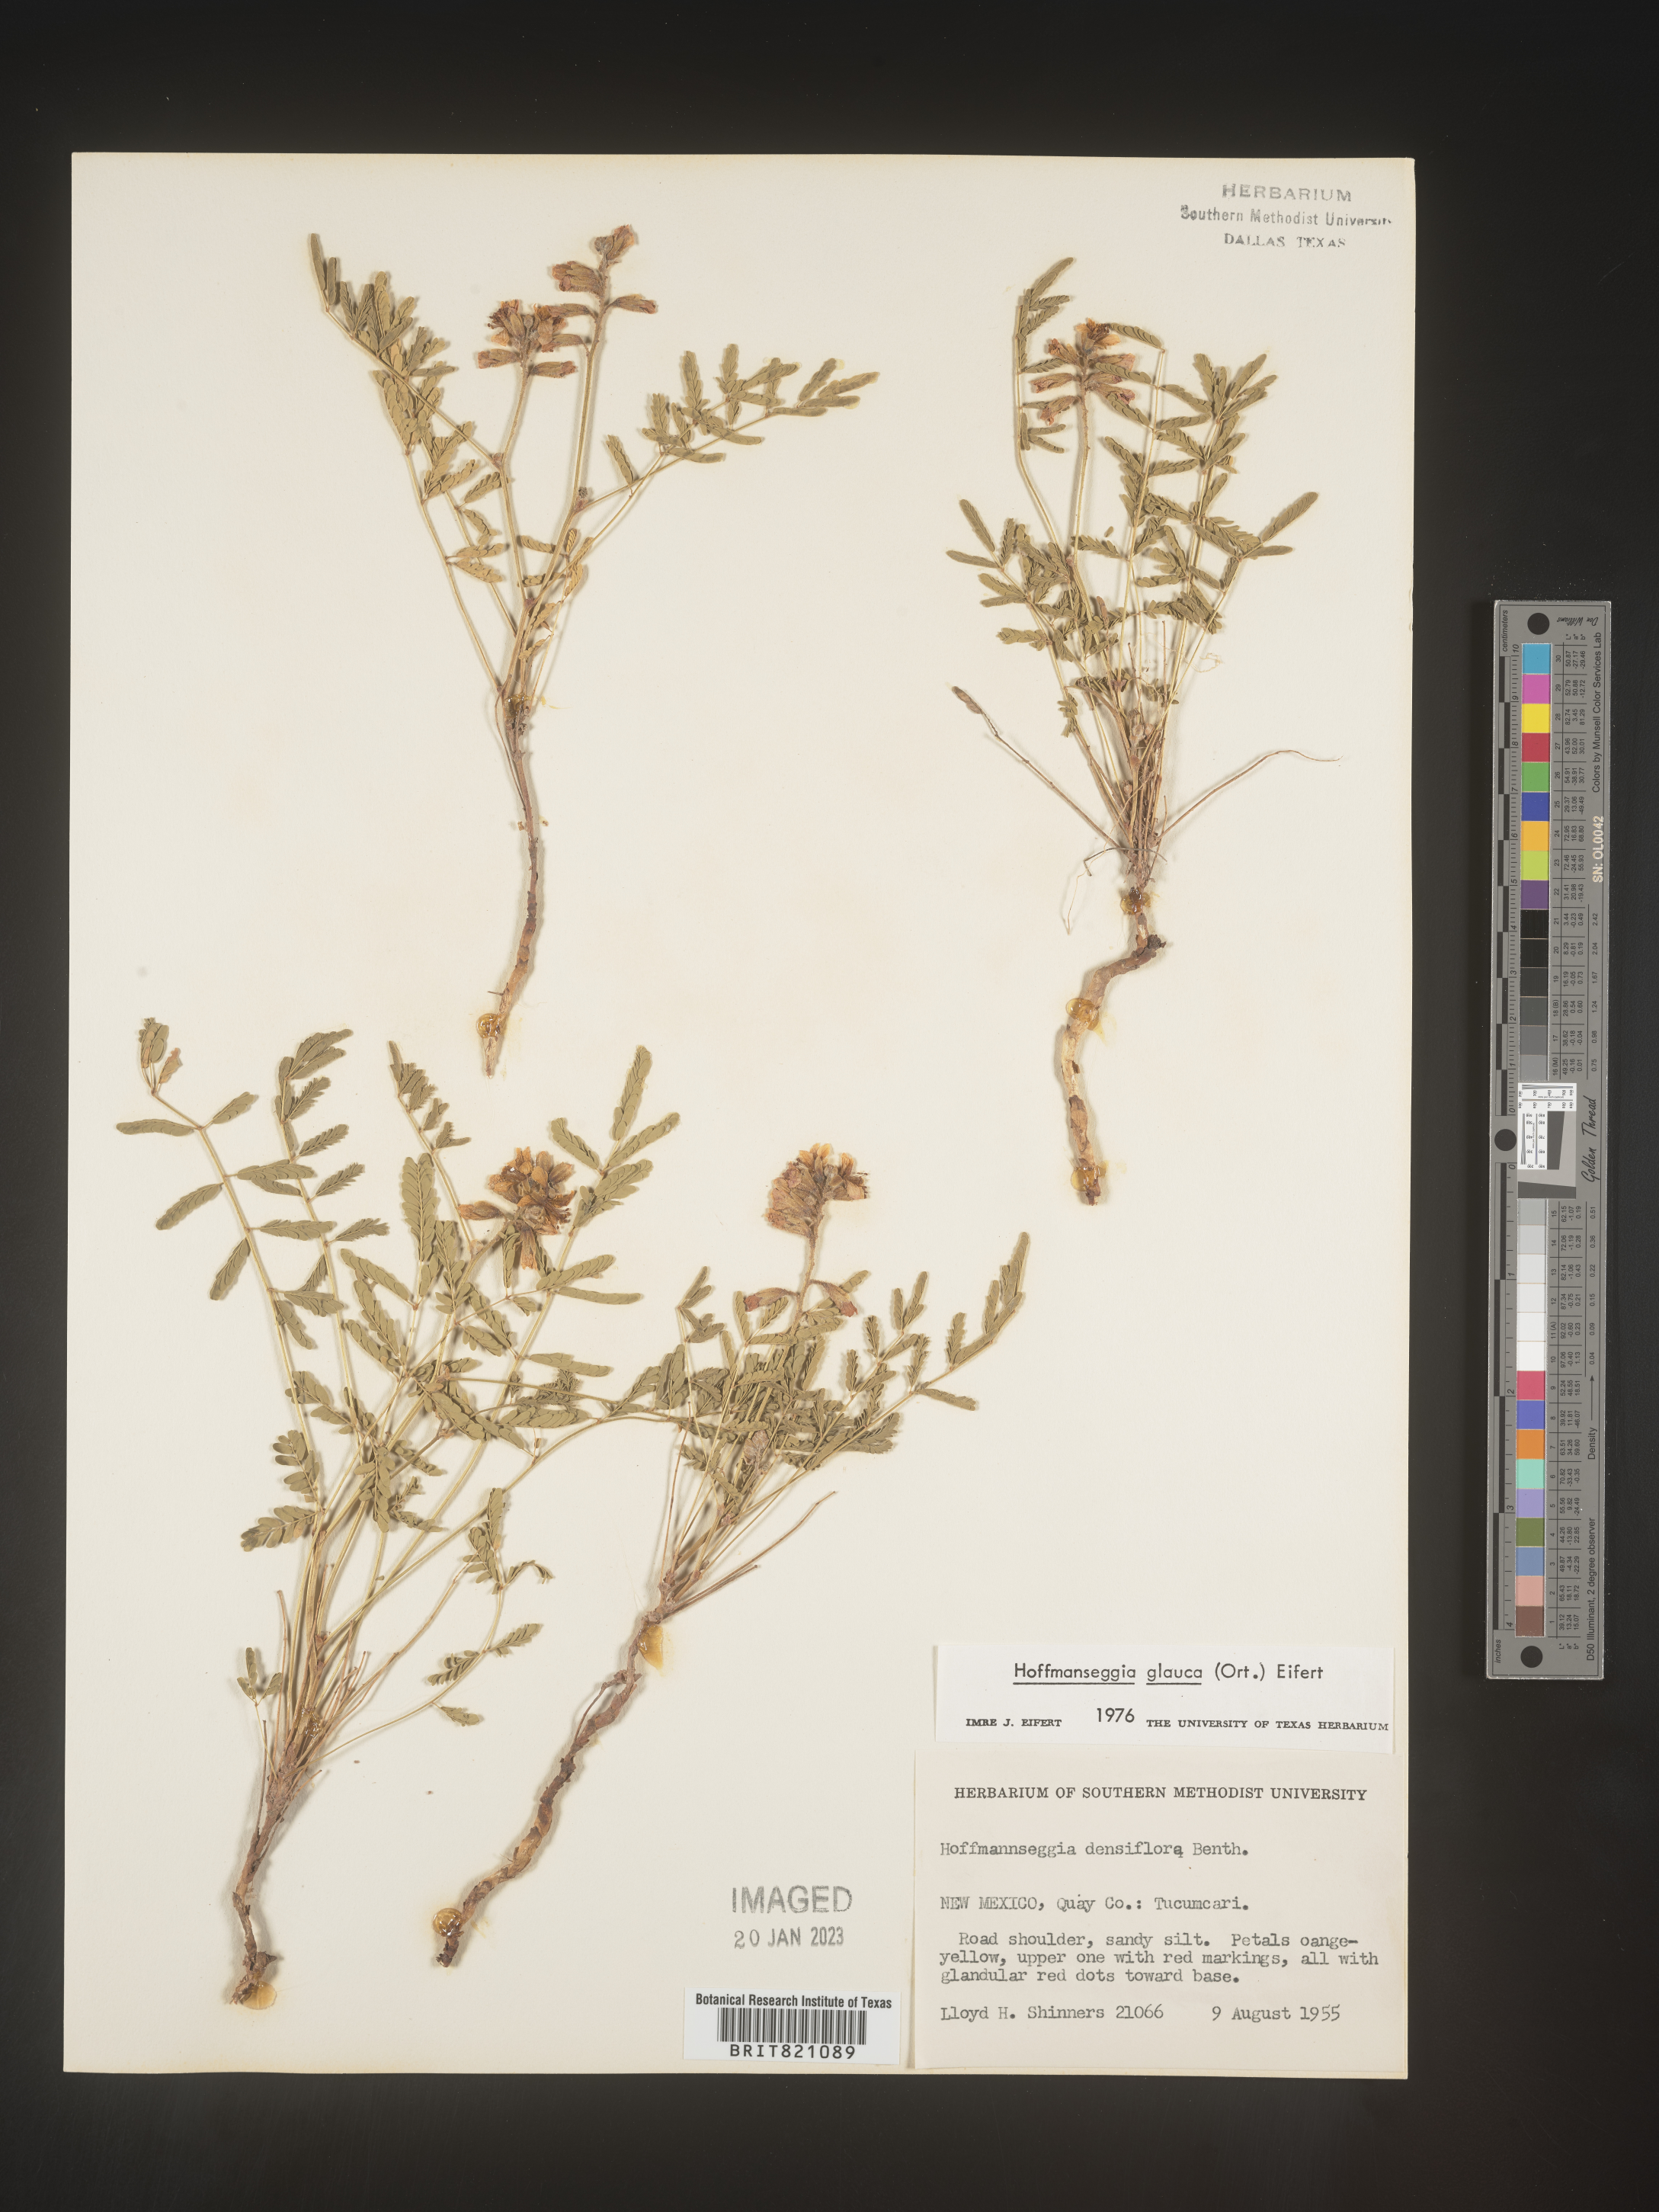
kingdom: Plantae
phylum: Tracheophyta
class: Magnoliopsida
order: Fabales
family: Fabaceae
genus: Hoffmannseggia
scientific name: Hoffmannseggia
